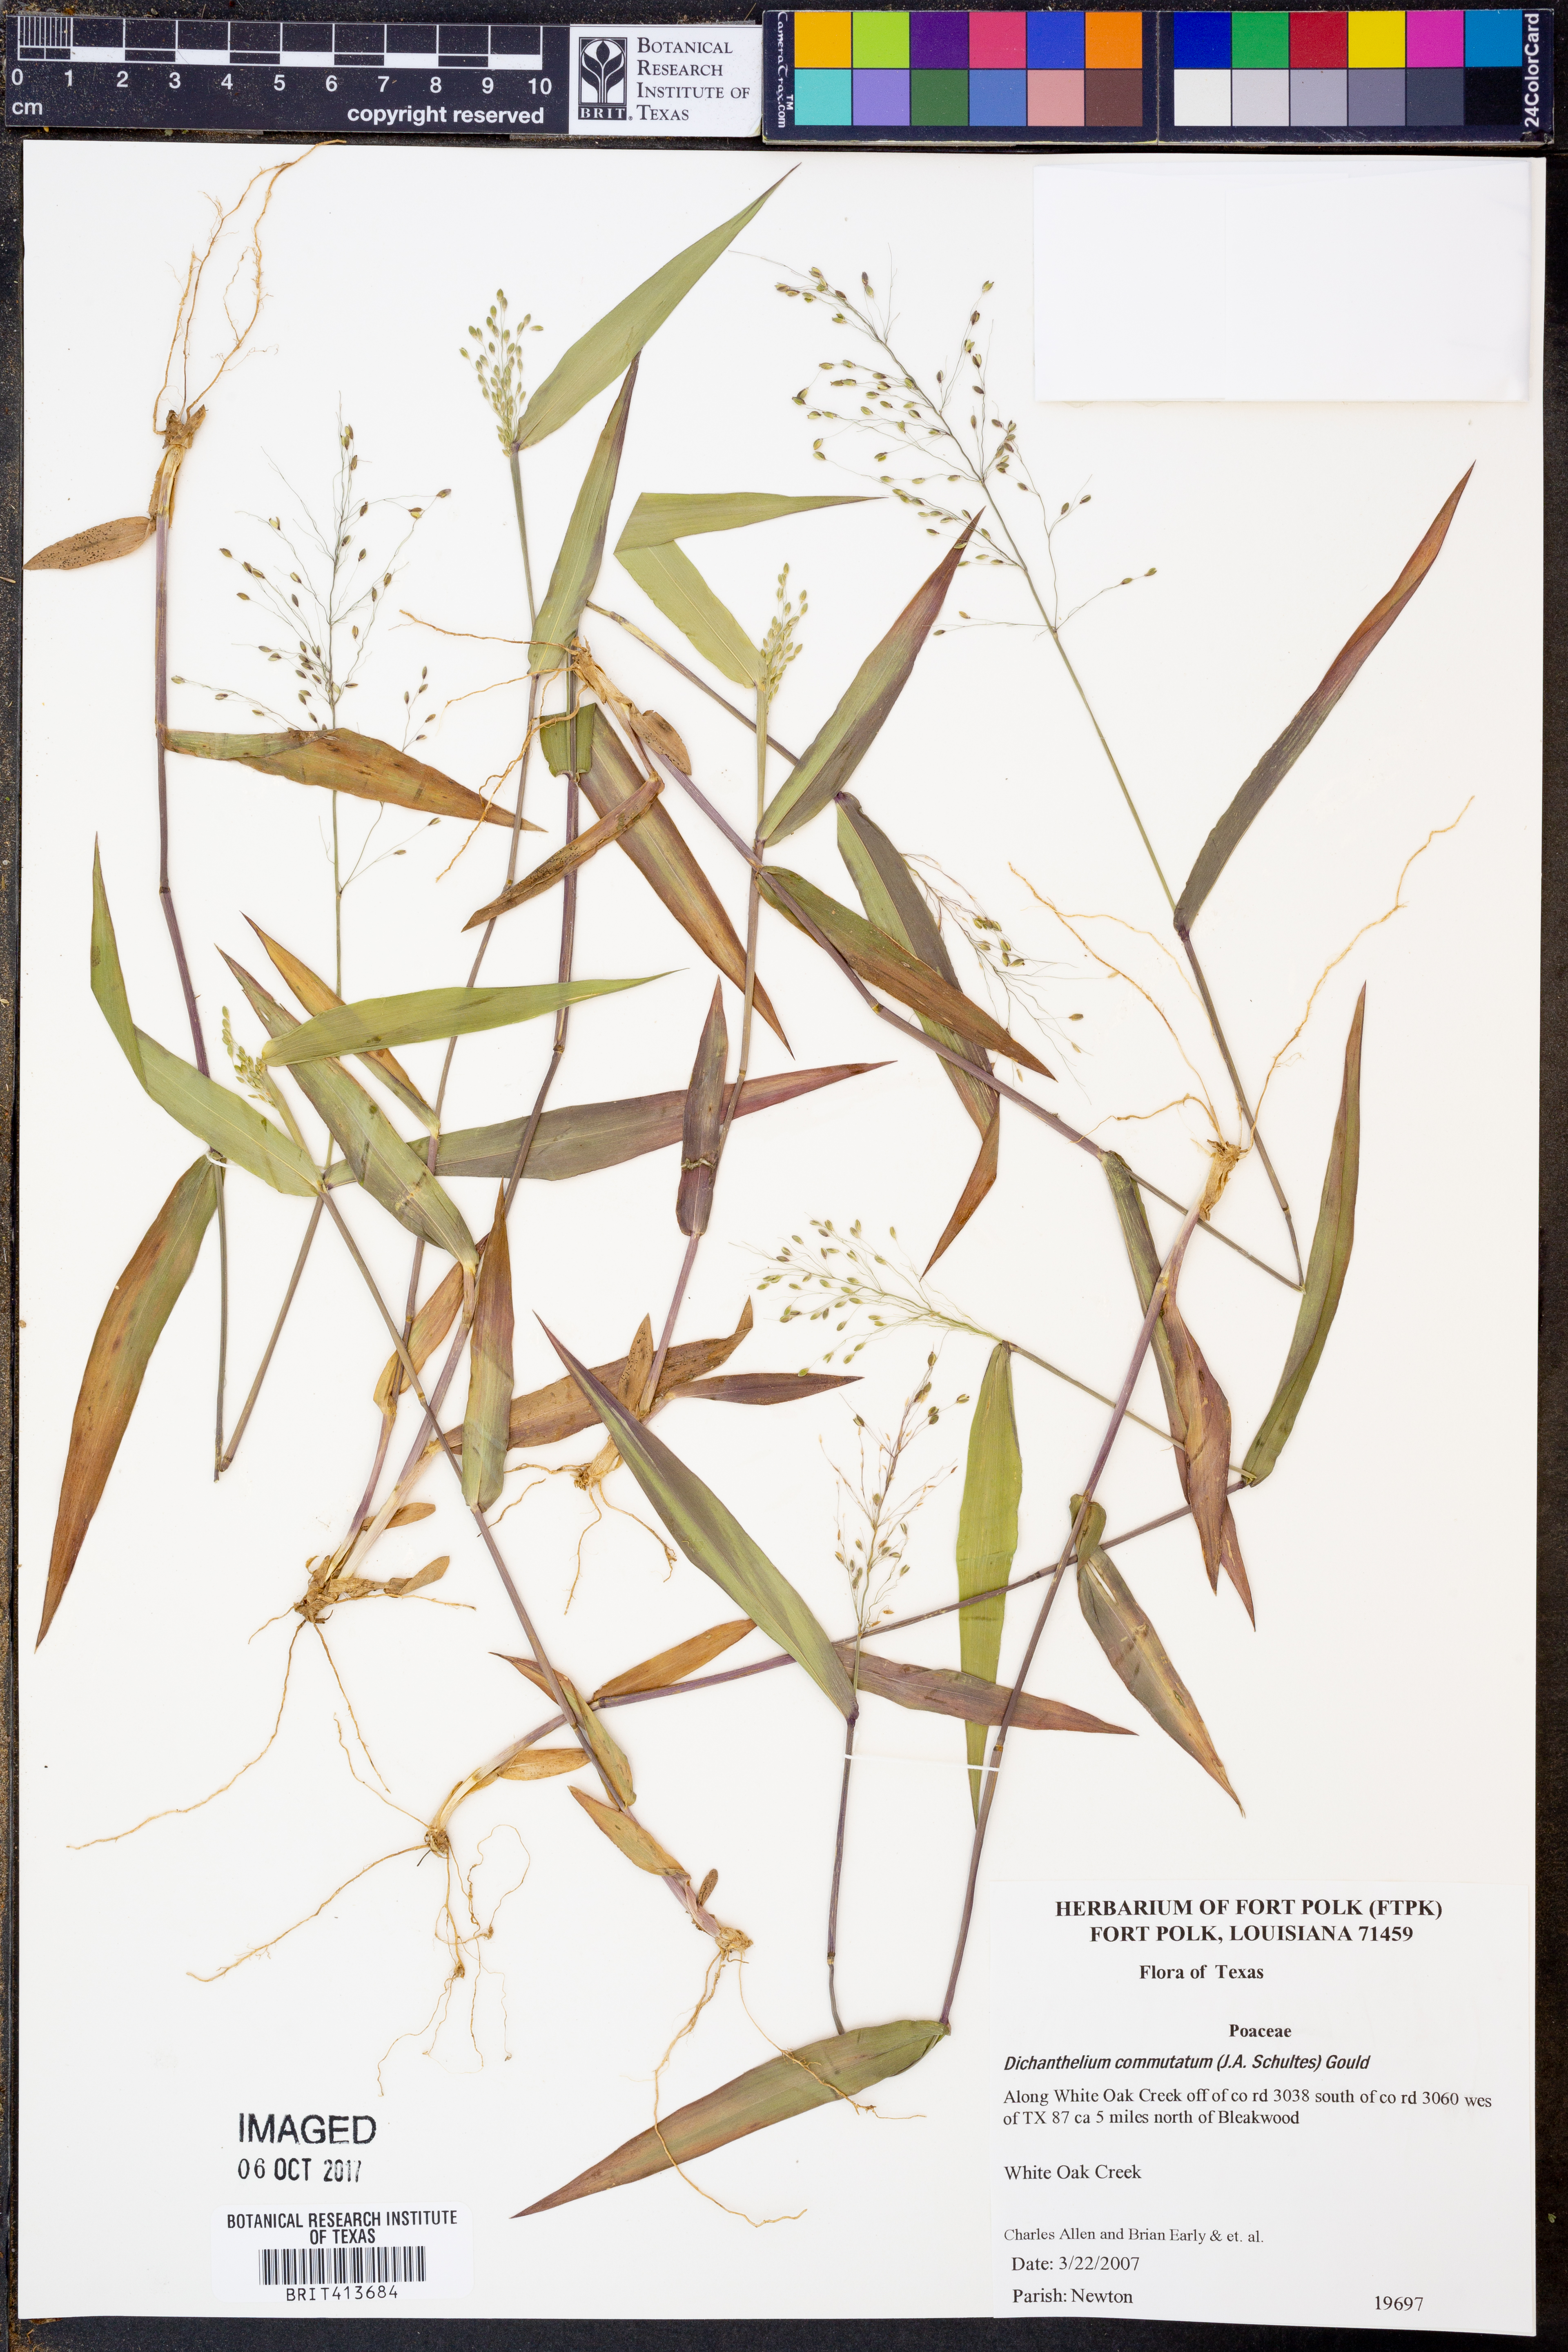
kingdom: Plantae
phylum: Tracheophyta
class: Liliopsida
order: Poales
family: Poaceae
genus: Dichanthelium
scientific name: Dichanthelium commutatum
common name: Variable witchgrass
